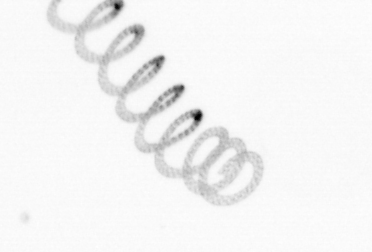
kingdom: Chromista
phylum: Ochrophyta
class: Bacillariophyceae
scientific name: Bacillariophyceae
